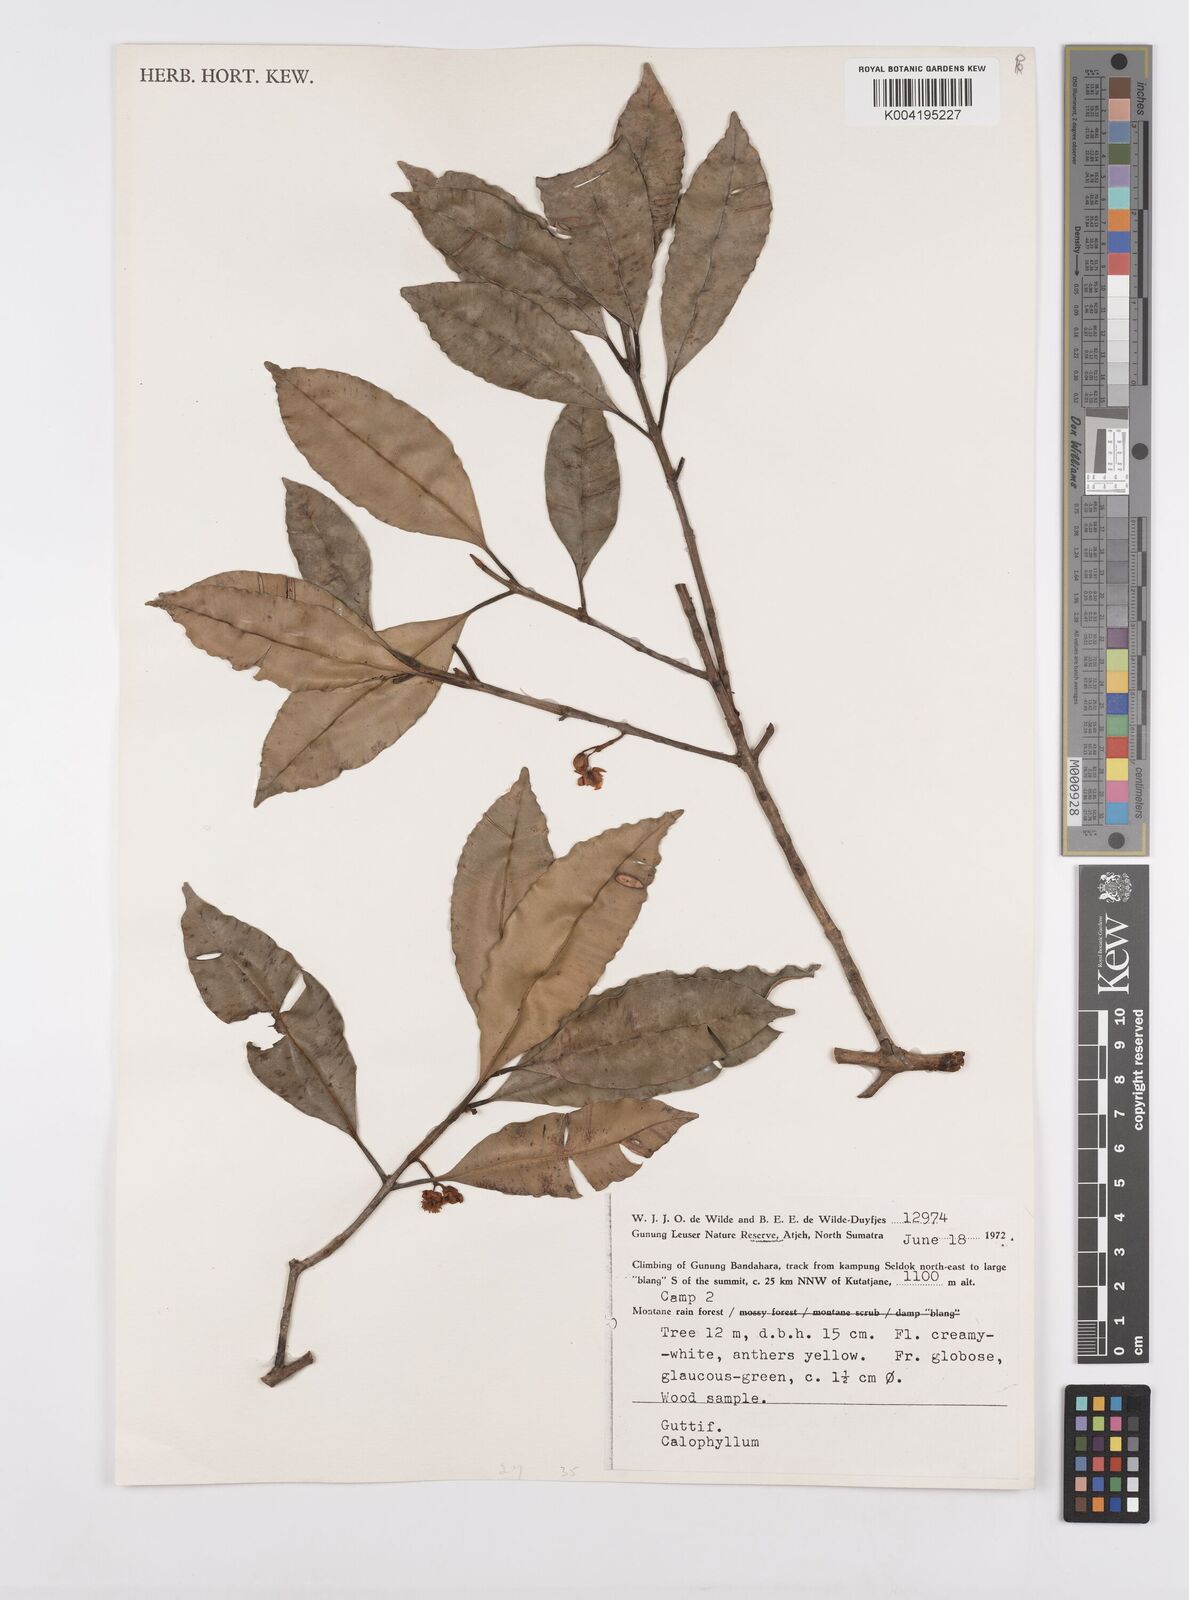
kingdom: Plantae
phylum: Tracheophyta
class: Magnoliopsida
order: Malpighiales
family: Calophyllaceae
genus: Calophyllum
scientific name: Calophyllum incumbens
